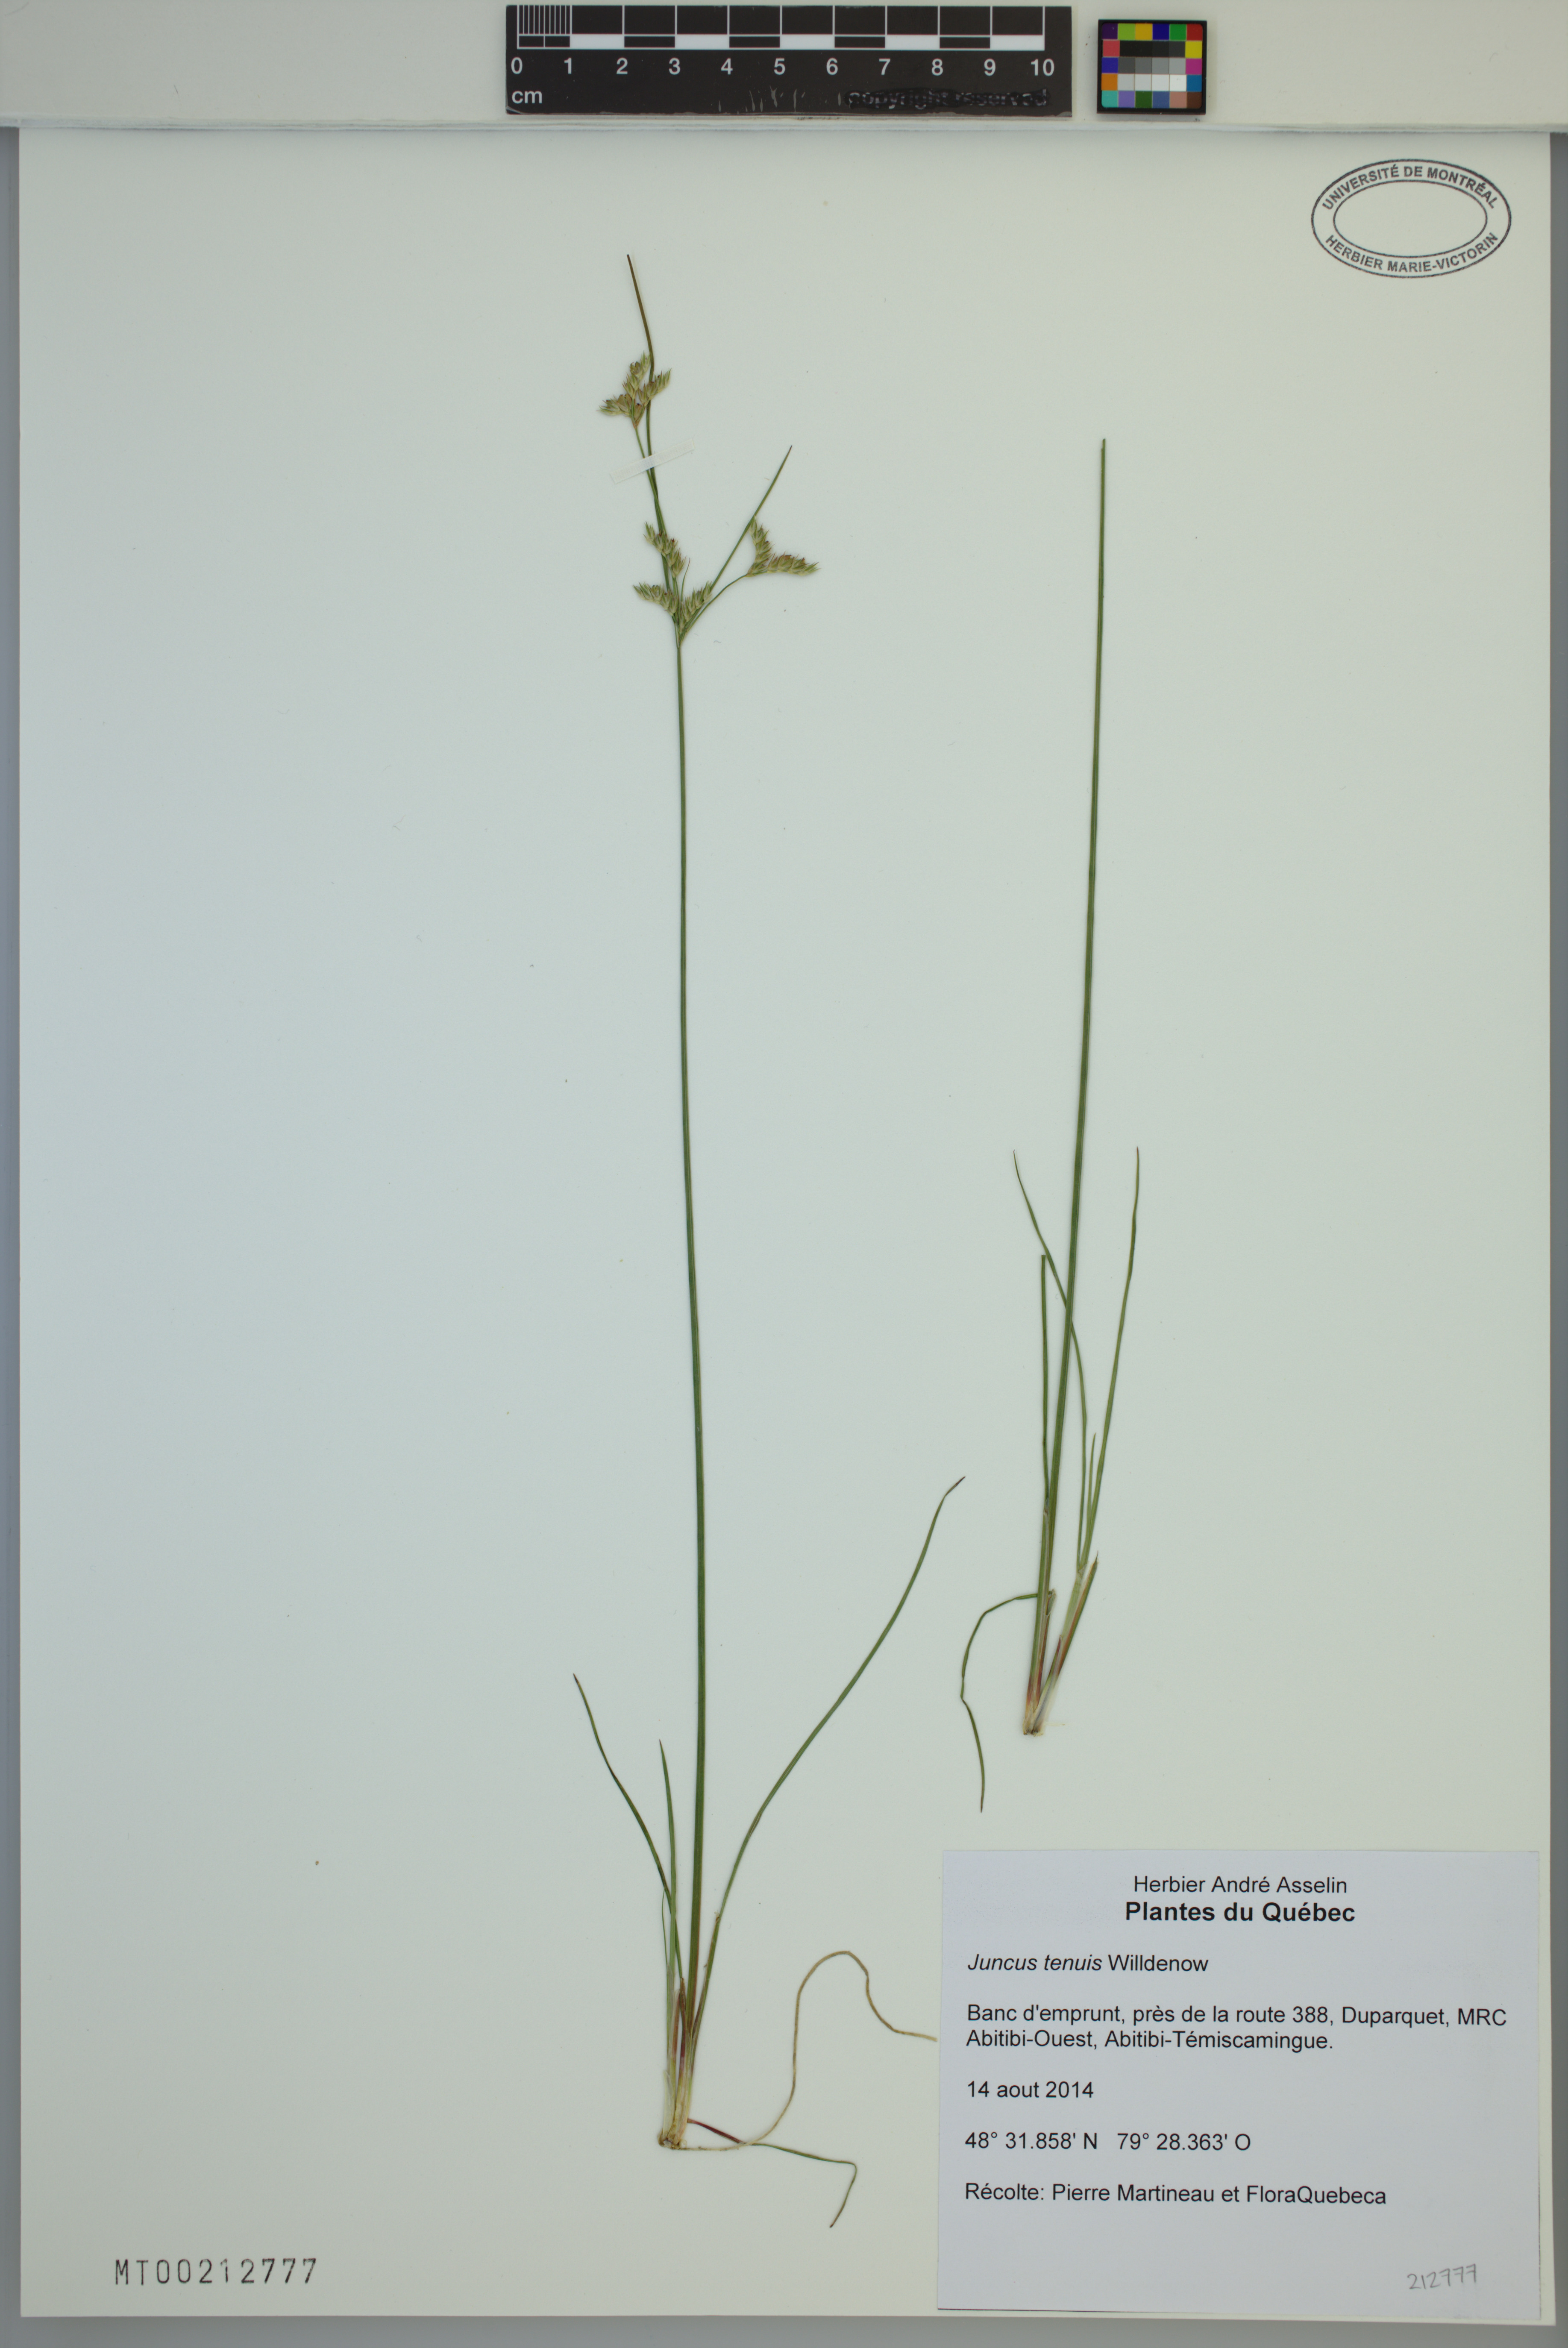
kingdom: Plantae
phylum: Tracheophyta
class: Liliopsida
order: Poales
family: Juncaceae
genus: Juncus
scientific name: Juncus tenuis
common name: Slender rush
